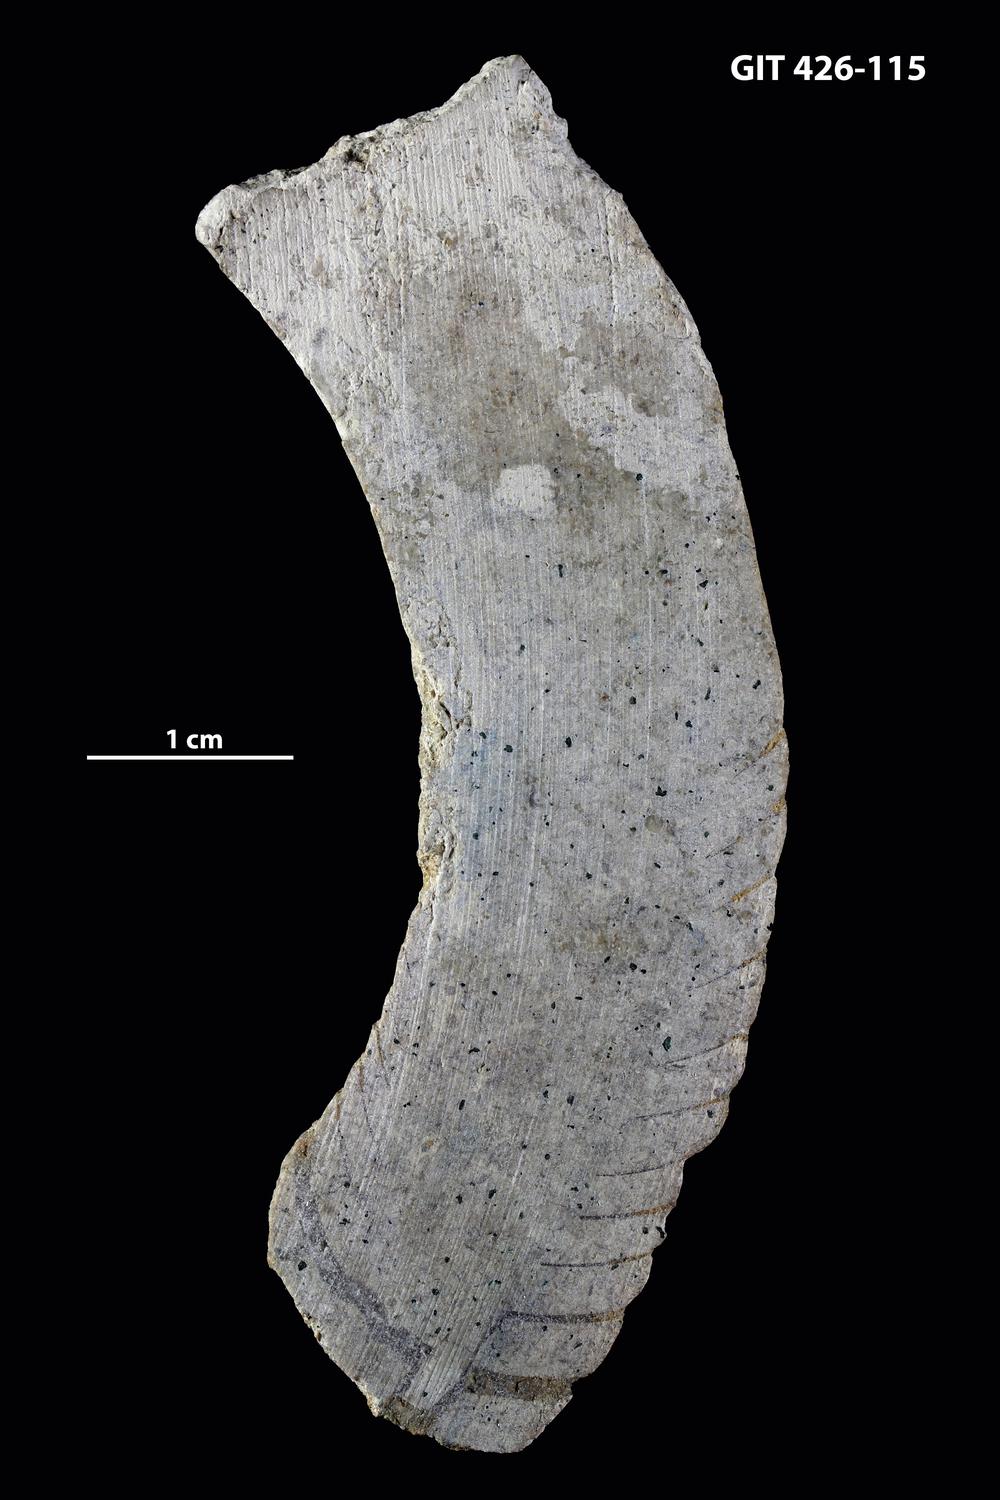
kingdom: Animalia
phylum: Mollusca
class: Cephalopoda
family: Estonioceratidae
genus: Tragoceras
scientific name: Tragoceras
